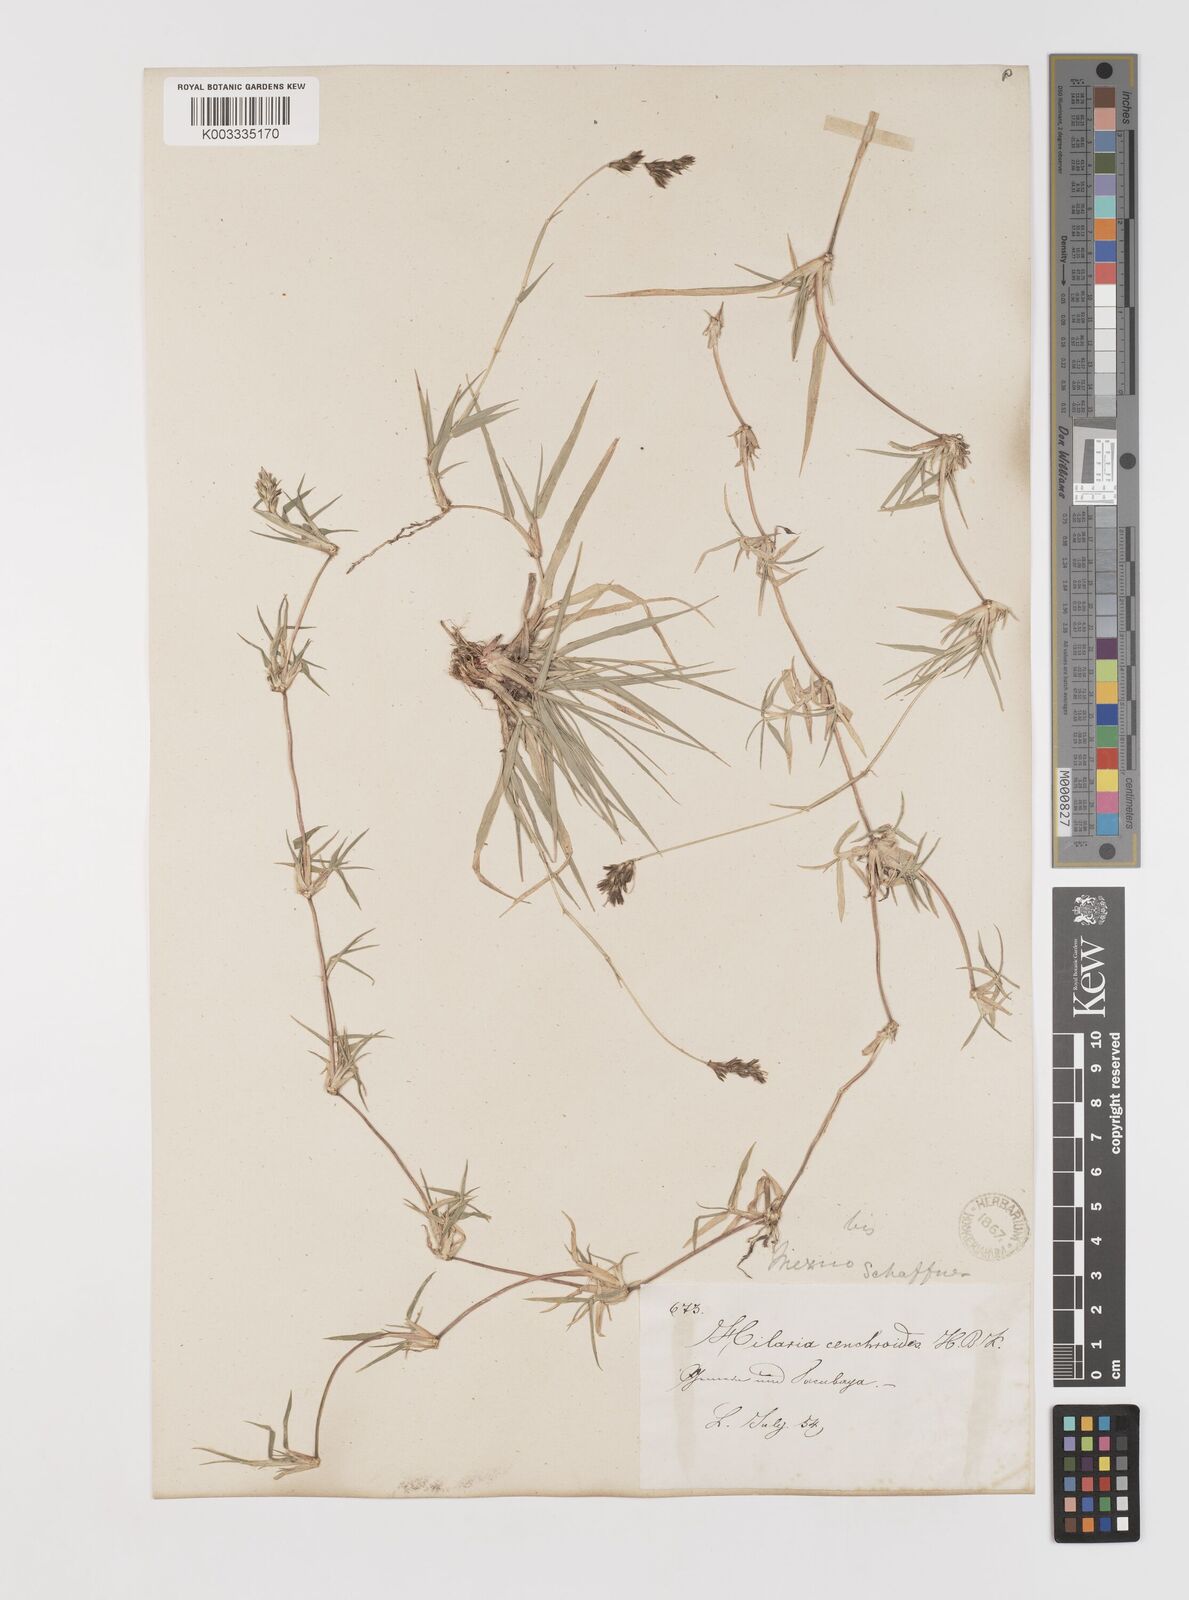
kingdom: Plantae
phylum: Tracheophyta
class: Liliopsida
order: Poales
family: Poaceae
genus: Hilaria
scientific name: Hilaria cenchroides
